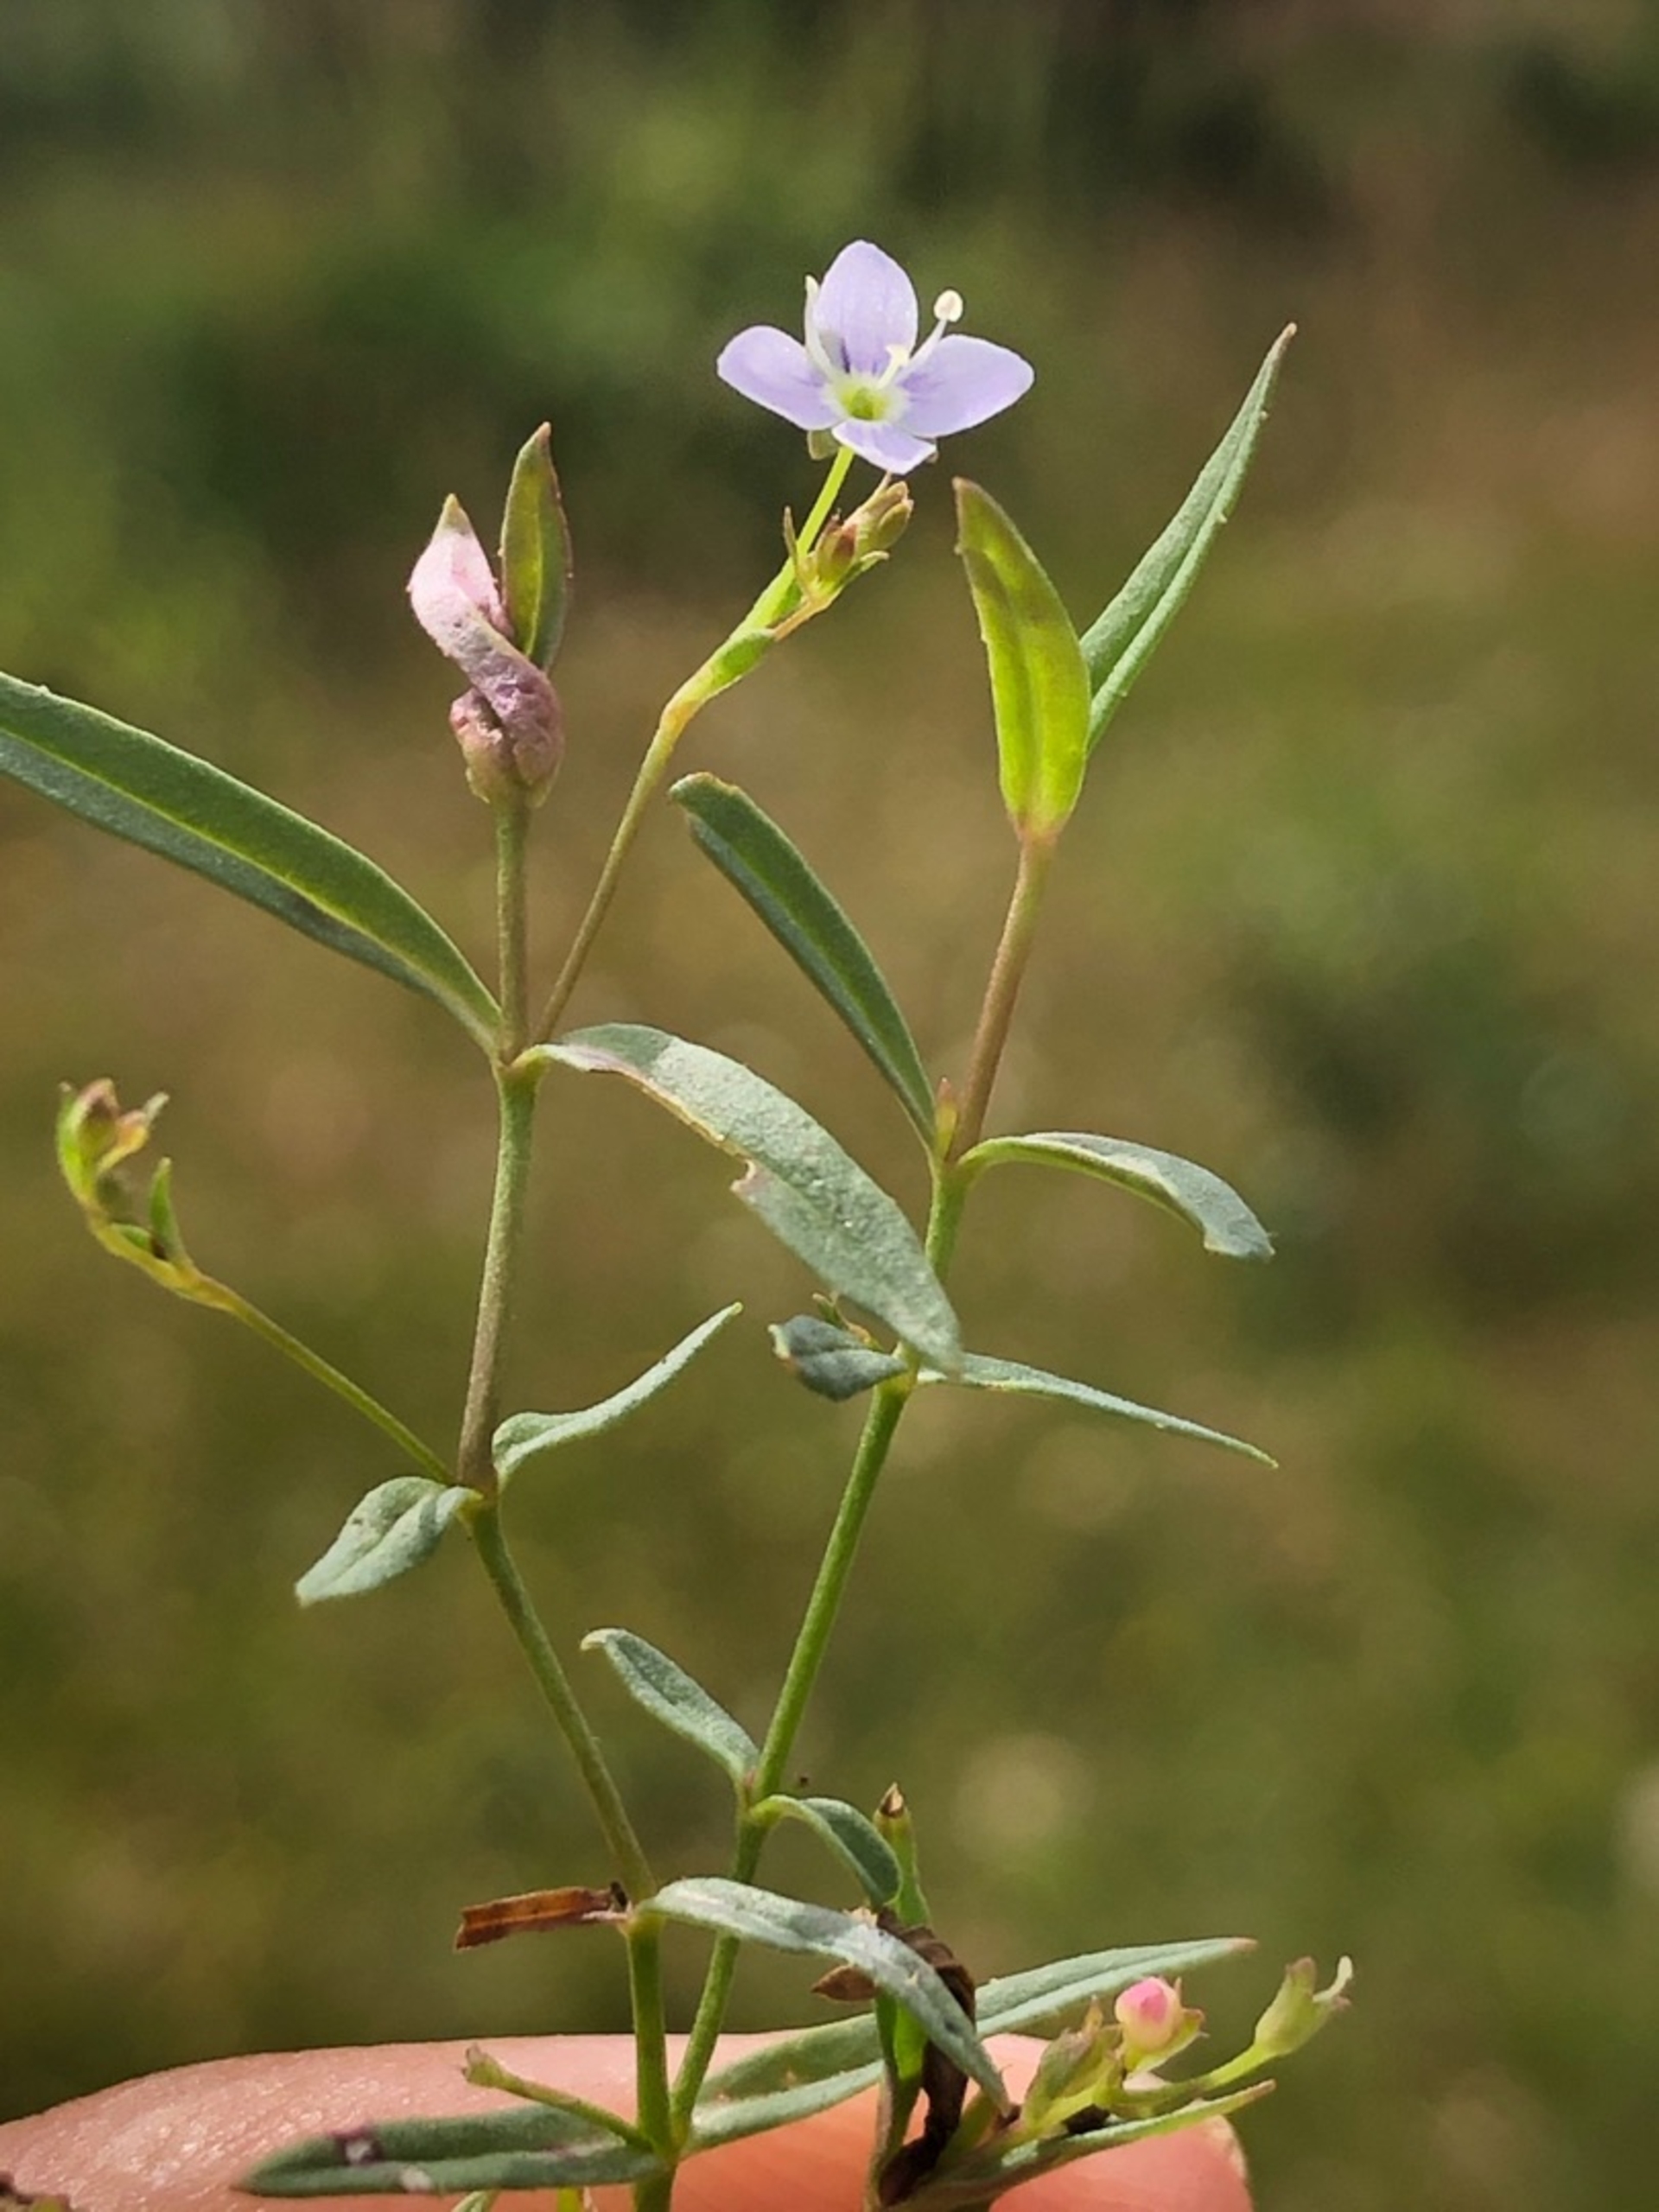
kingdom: Plantae
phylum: Tracheophyta
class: Magnoliopsida
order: Lamiales
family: Plantaginaceae
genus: Veronica
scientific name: Veronica scutellata
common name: Smalbladet ærenpris
